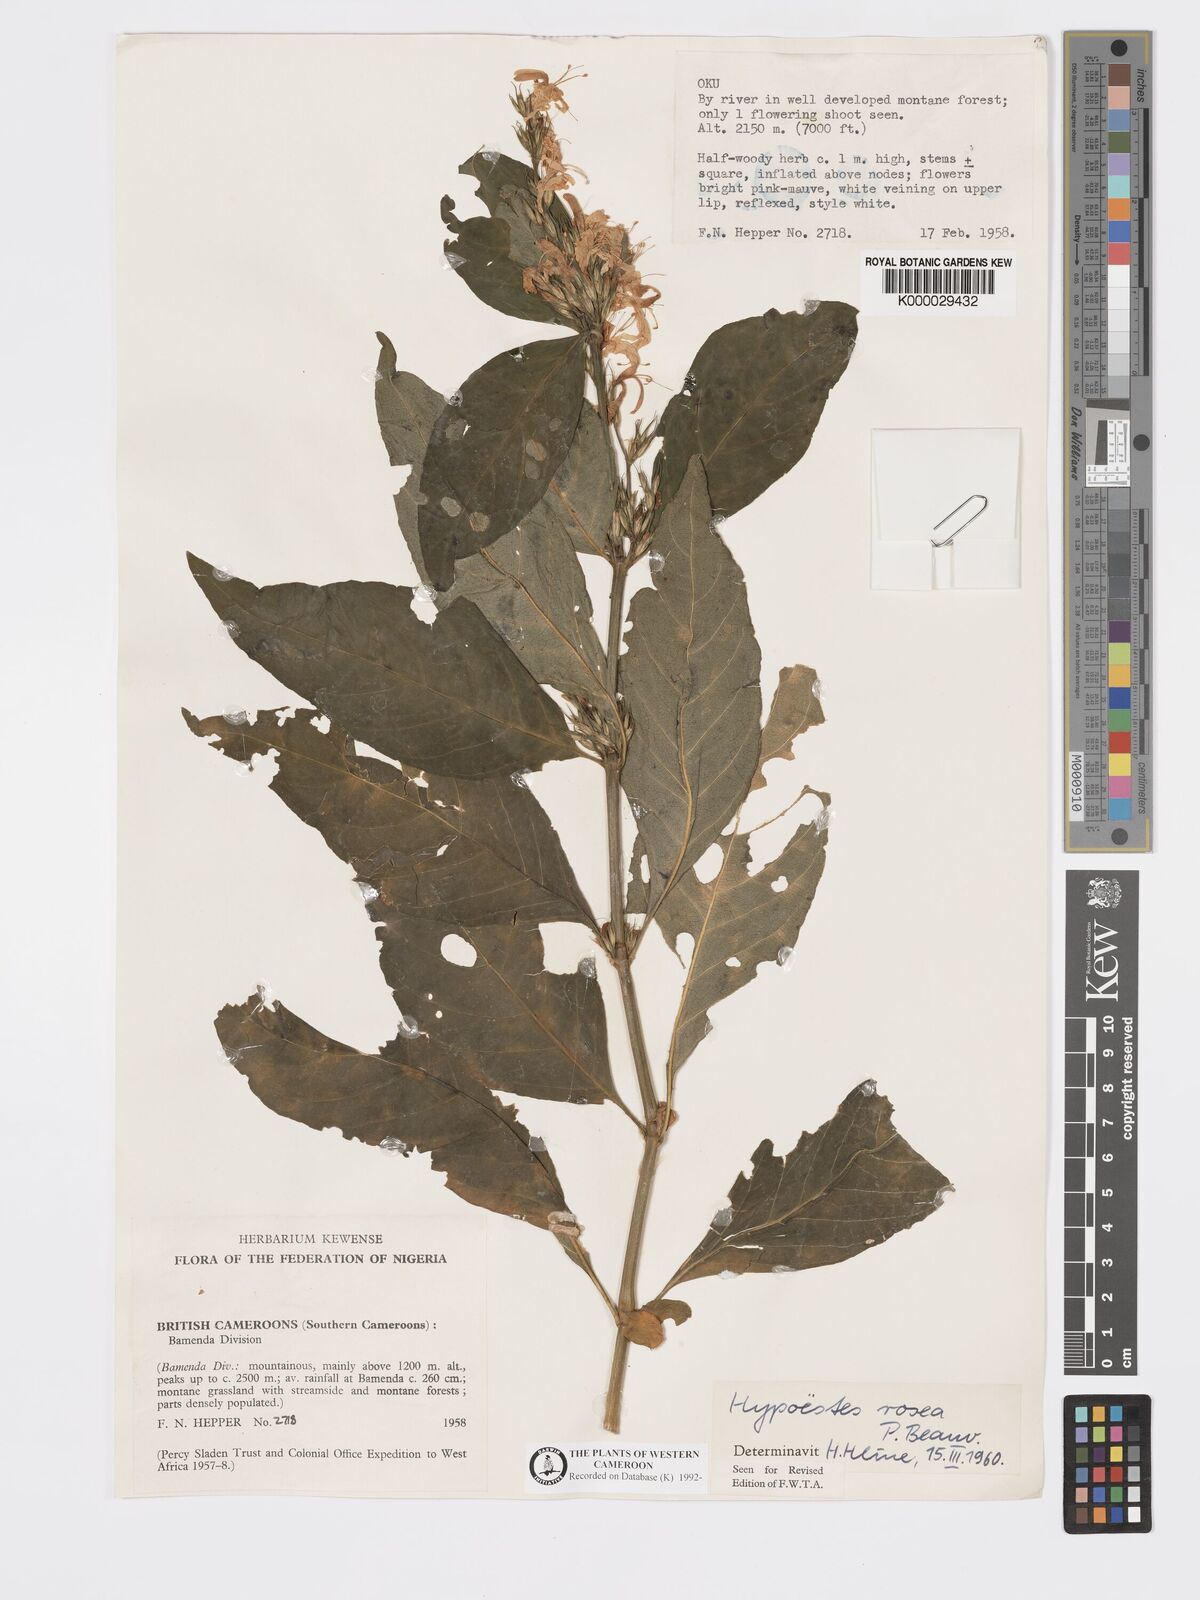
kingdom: Plantae
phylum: Tracheophyta
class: Magnoliopsida
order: Lamiales
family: Acanthaceae
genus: Hypoestes
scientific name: Hypoestes rosea
